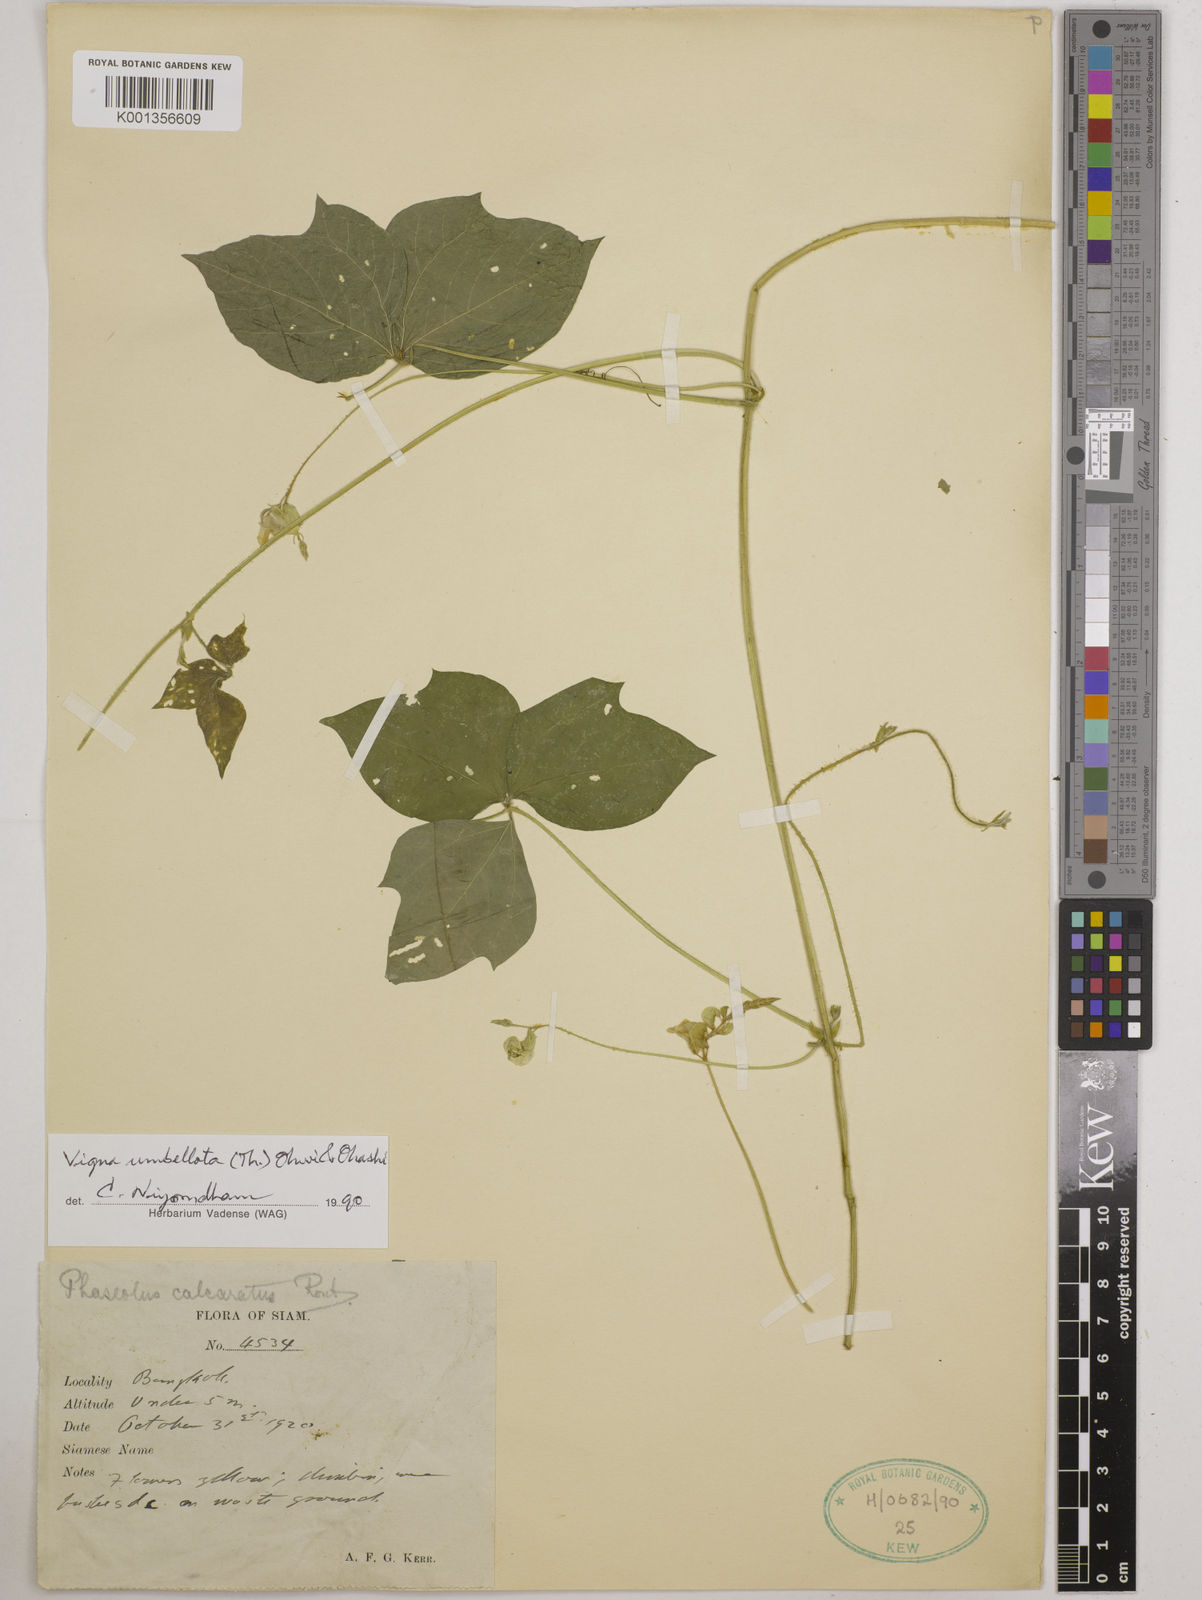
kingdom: Plantae
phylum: Tracheophyta
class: Magnoliopsida
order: Fabales
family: Fabaceae
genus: Vigna
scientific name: Vigna umbellata
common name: Oriental-bean
